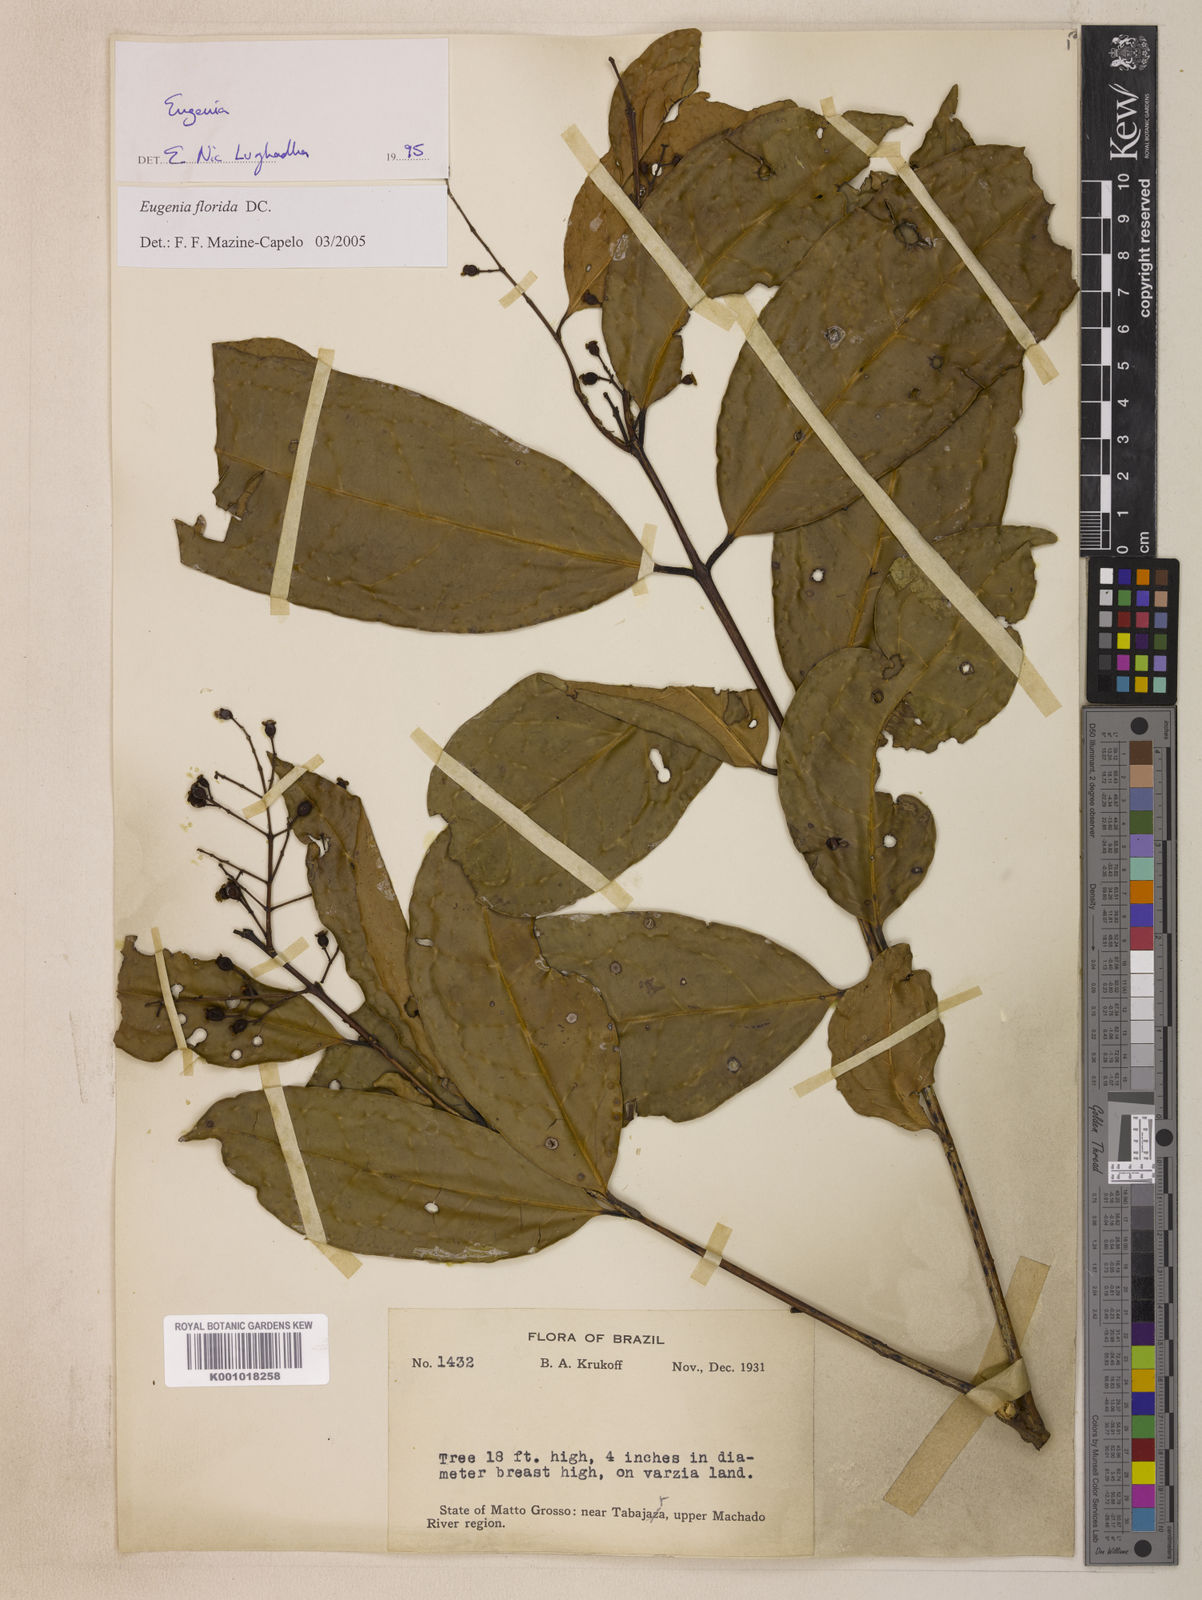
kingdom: Plantae
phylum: Tracheophyta
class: Magnoliopsida
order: Myrtales
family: Myrtaceae
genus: Eugenia
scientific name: Eugenia florida
